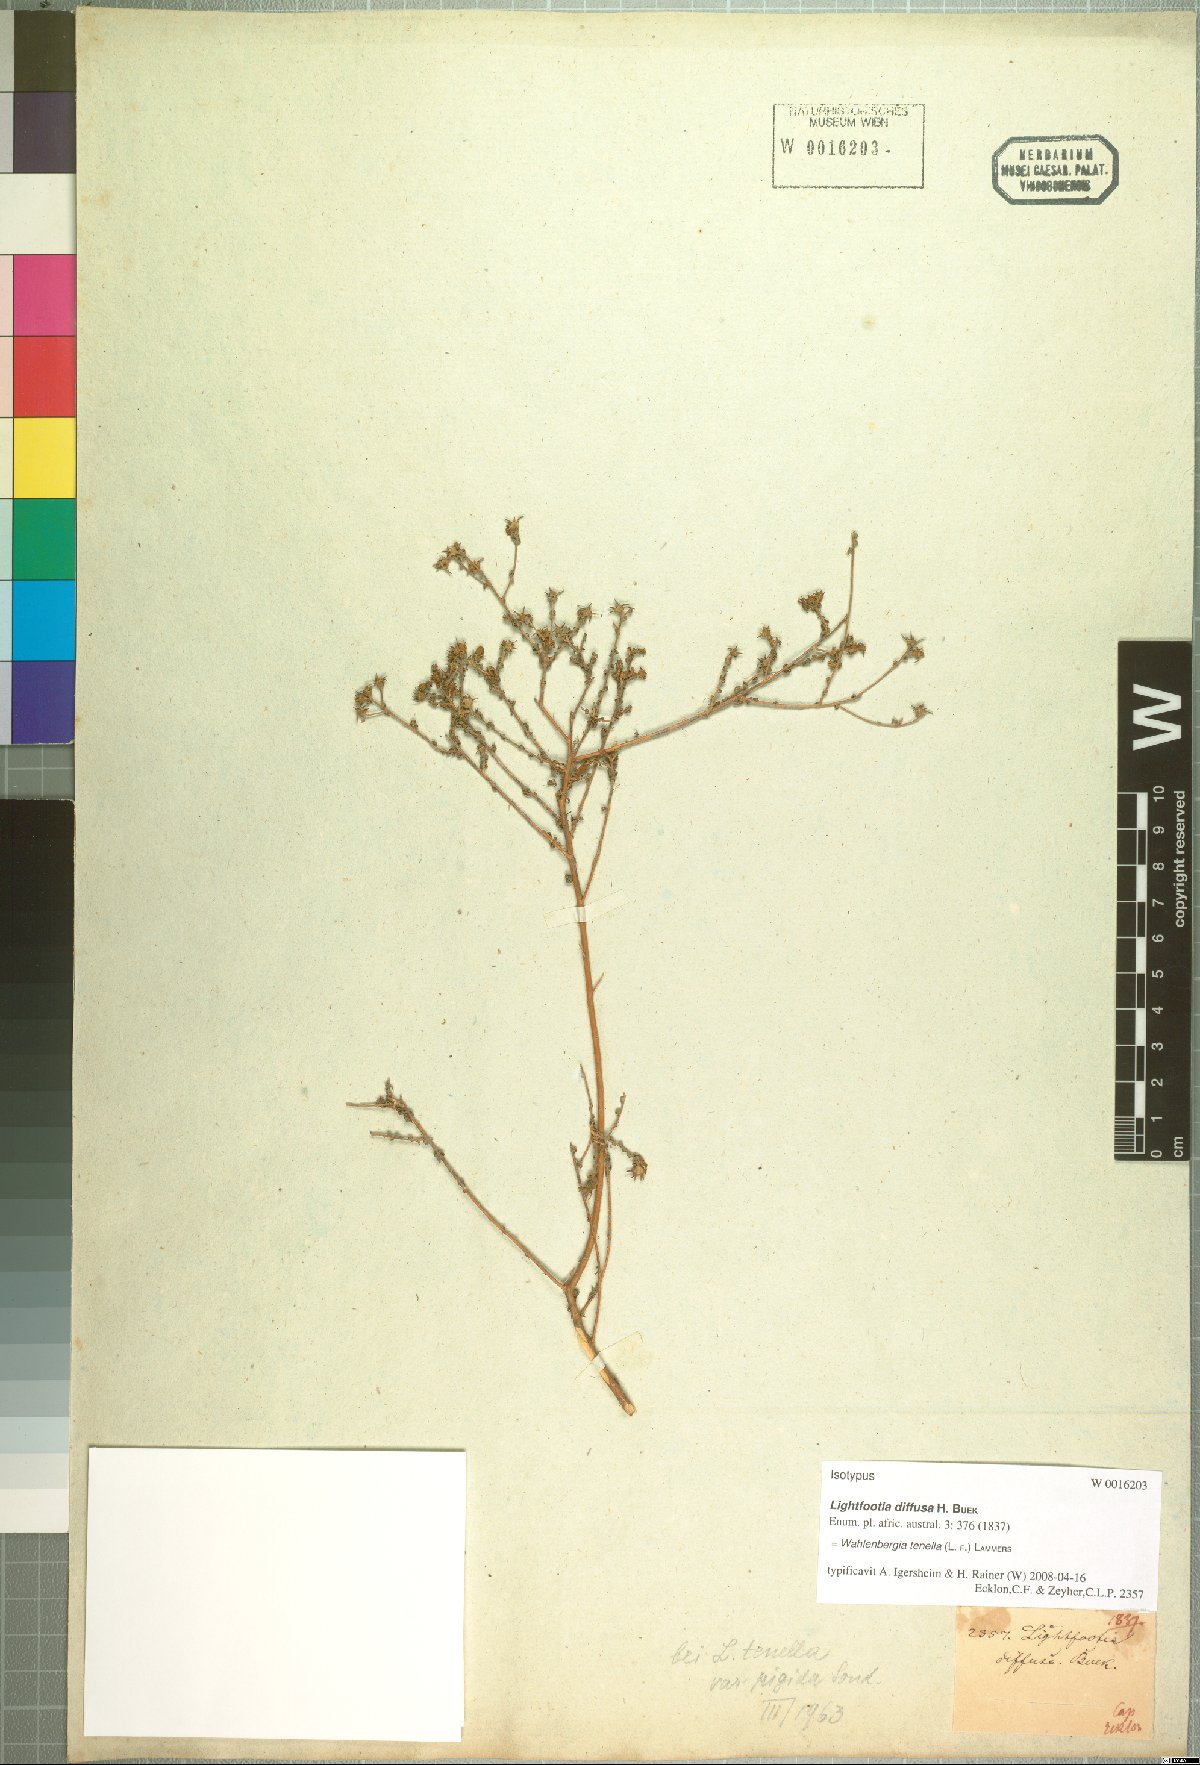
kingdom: Plantae
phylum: Tracheophyta
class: Magnoliopsida
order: Asterales
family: Campanulaceae
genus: Wahlenbergia
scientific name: Wahlenbergia tenella
